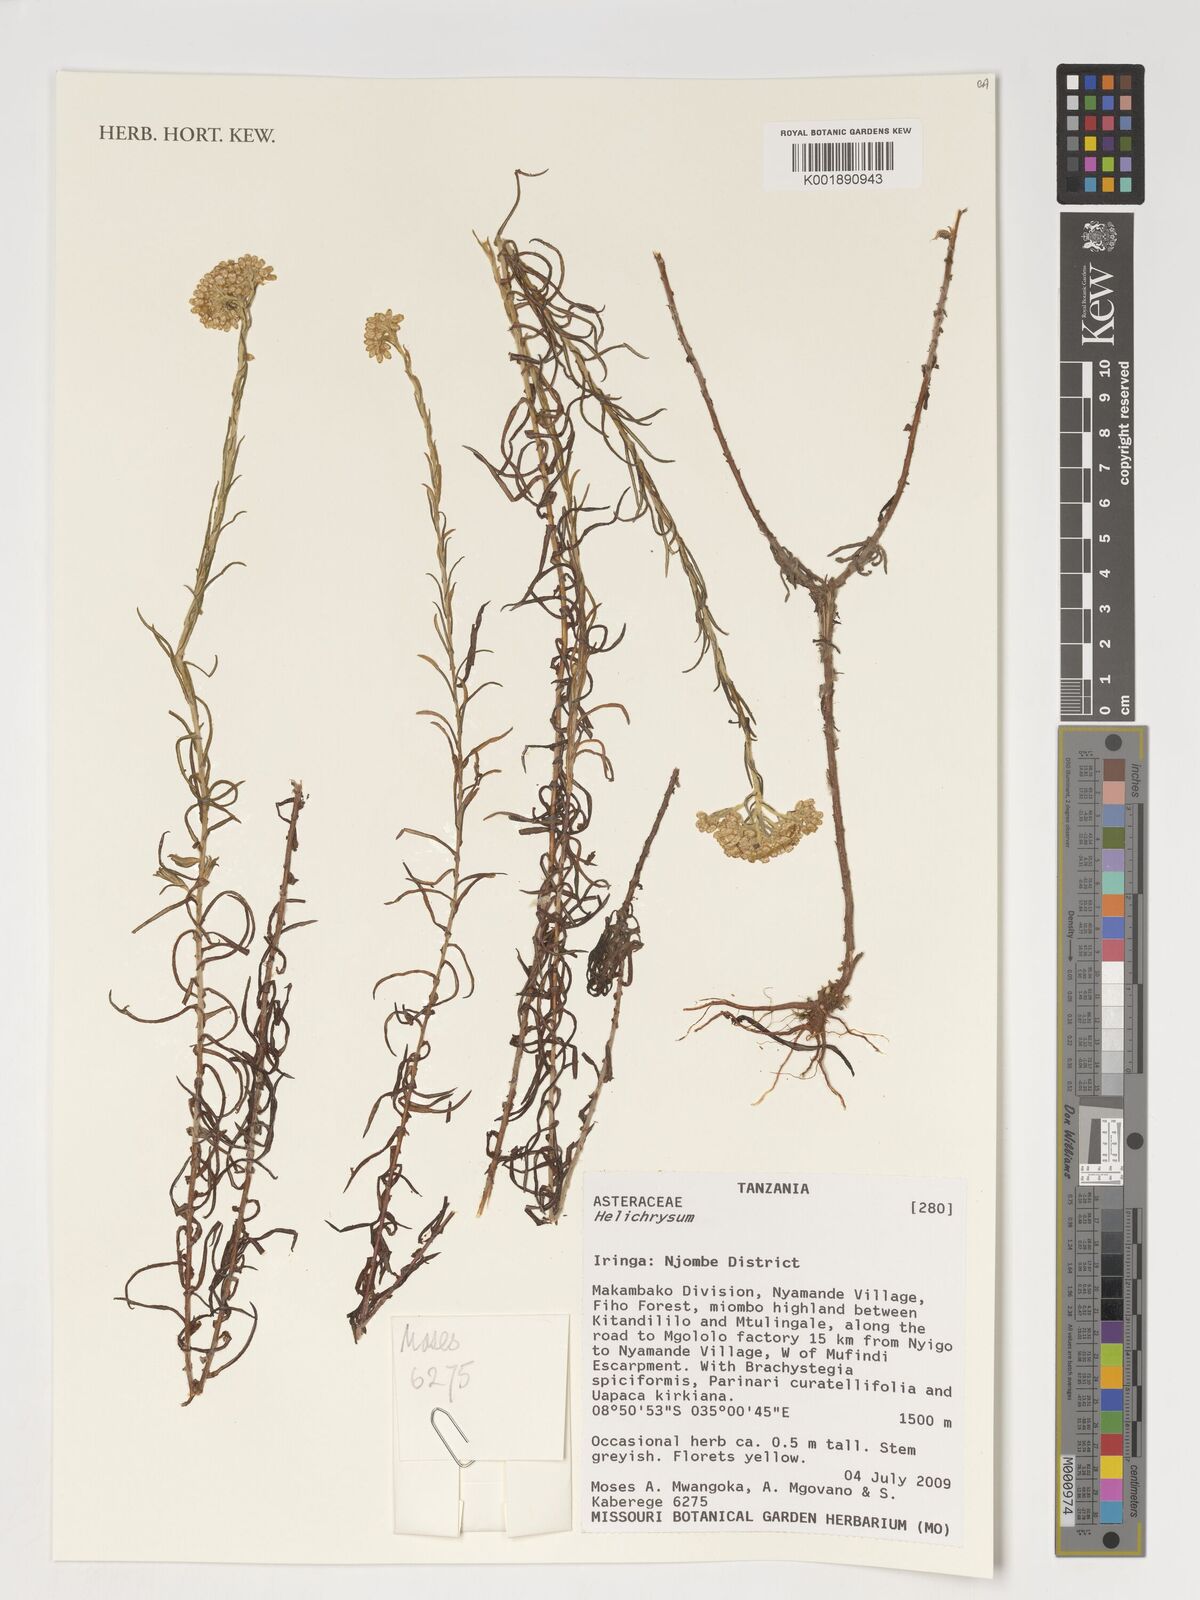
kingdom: Plantae
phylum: Tracheophyta
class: Magnoliopsida
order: Asterales
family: Asteraceae
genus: Helichrysum
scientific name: Helichrysum
